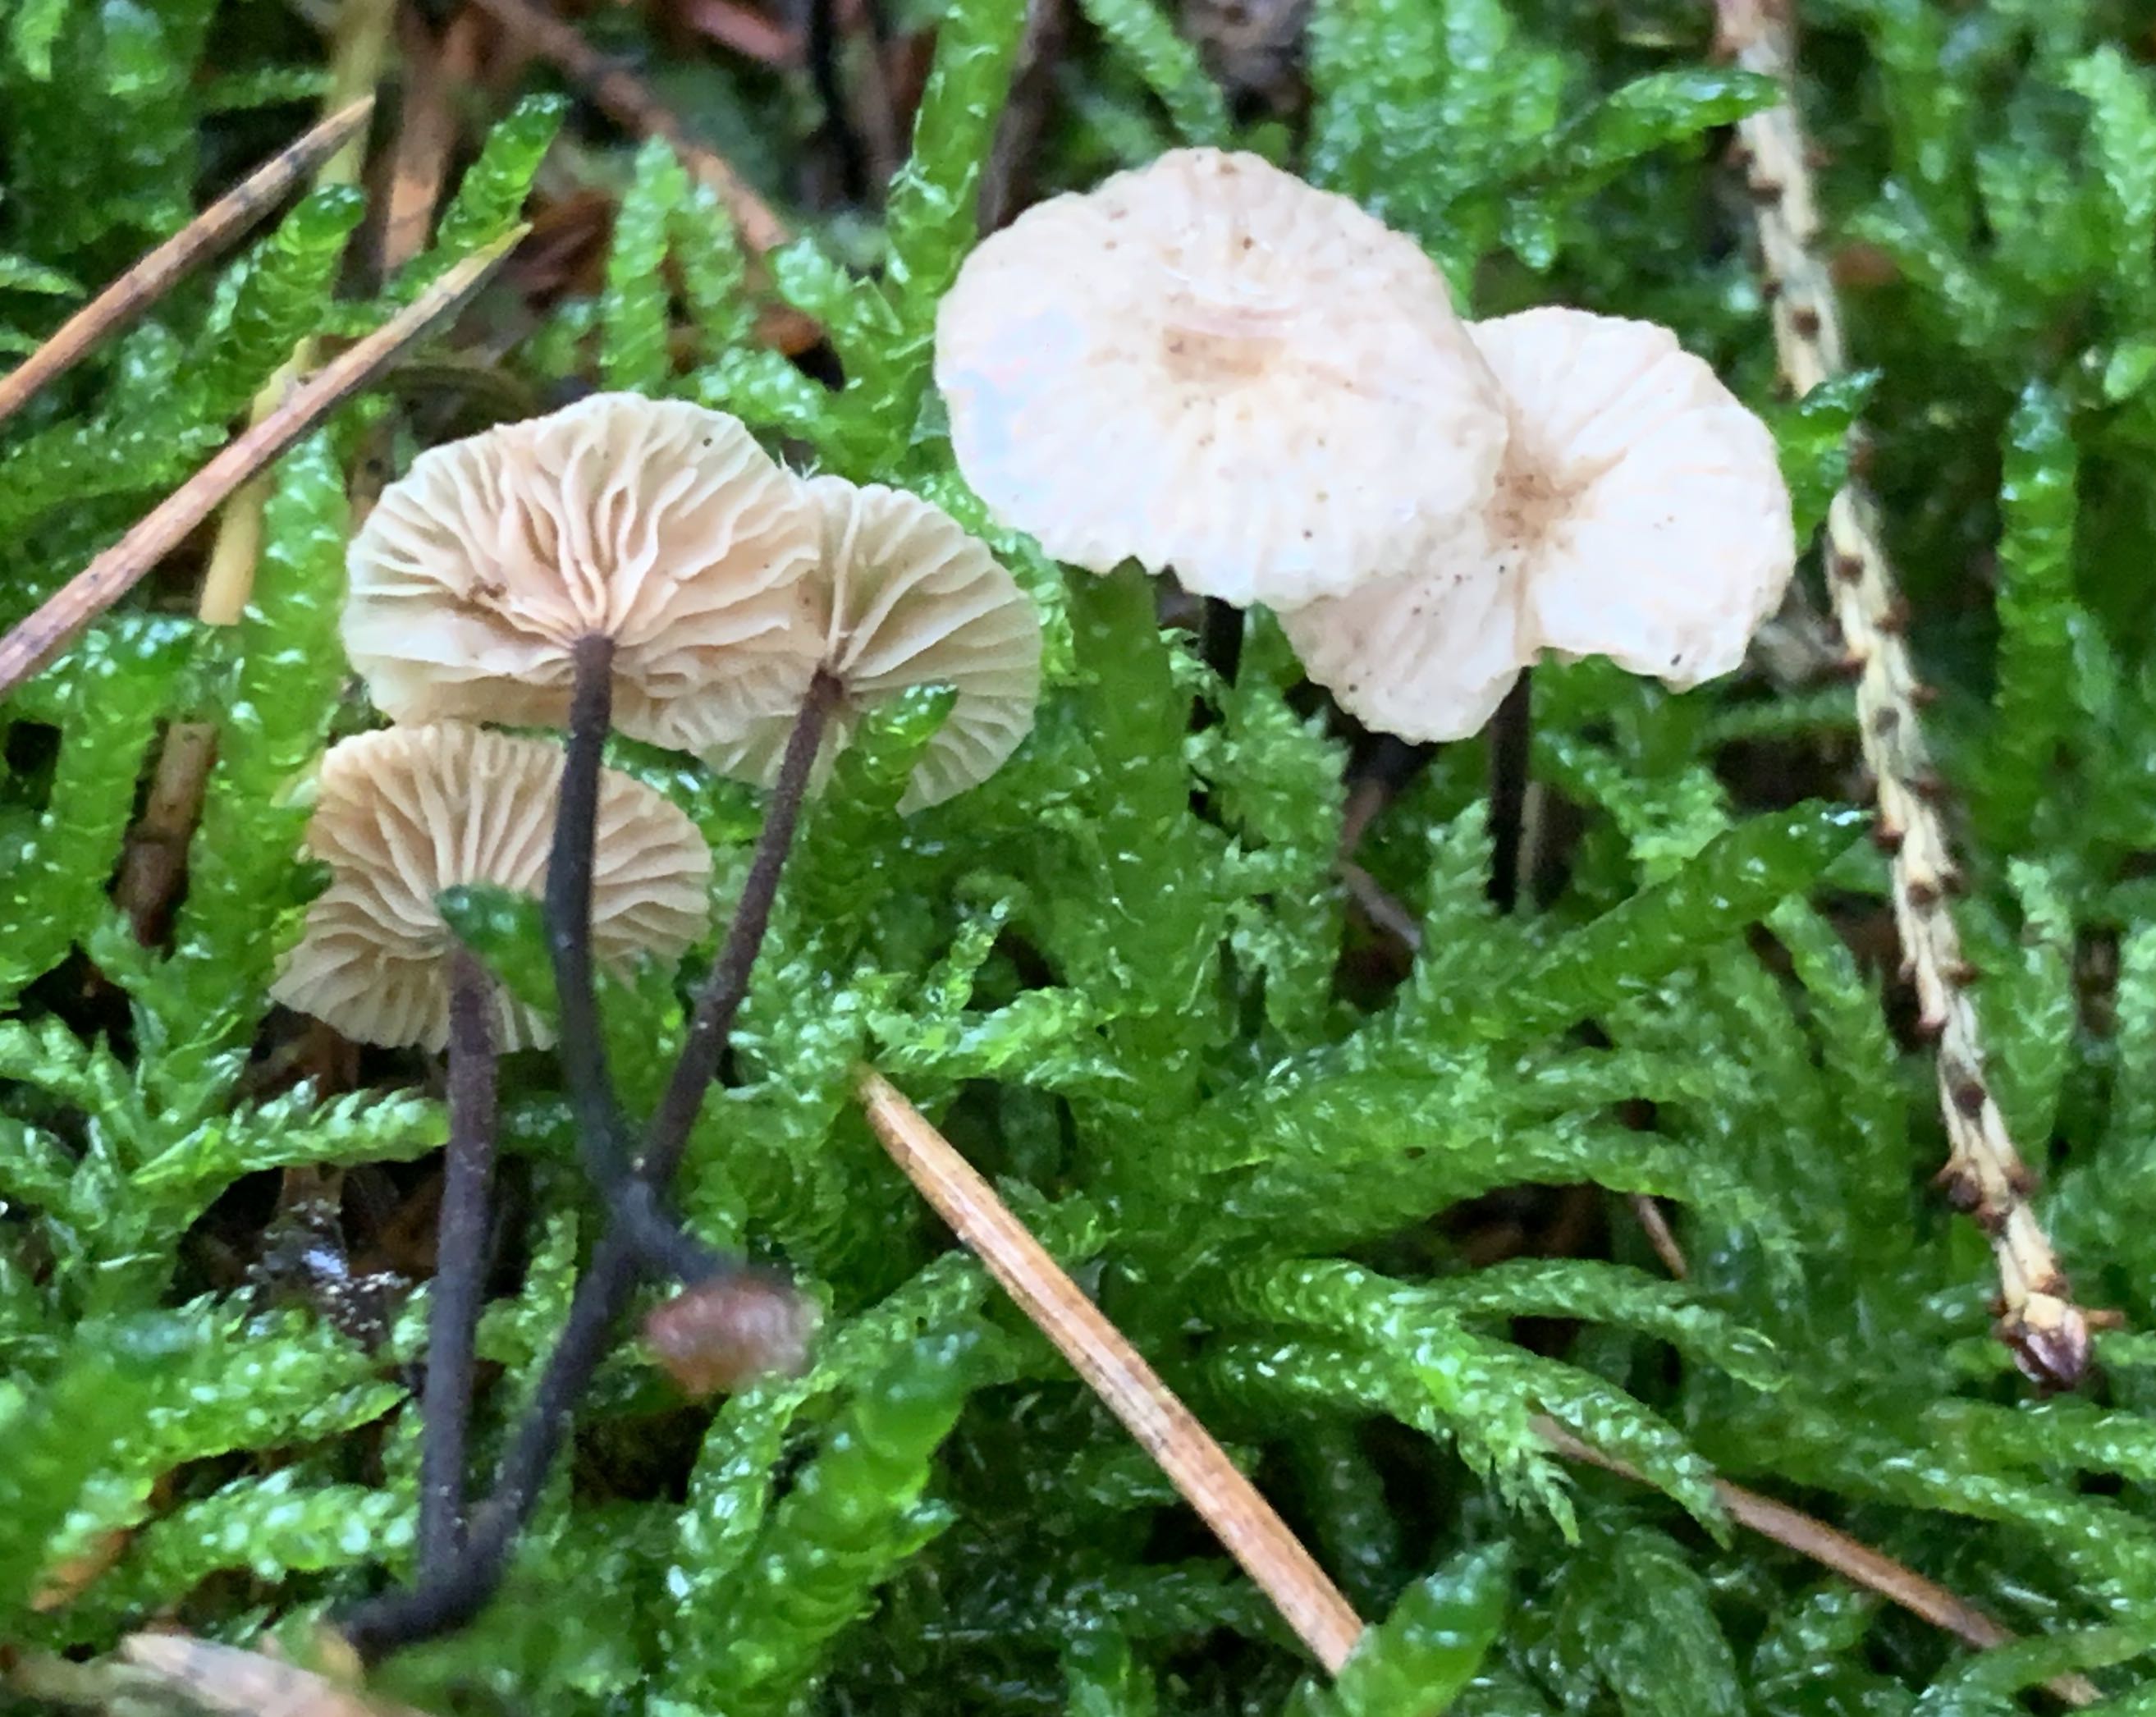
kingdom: Fungi
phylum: Basidiomycota
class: Agaricomycetes
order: Agaricales
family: Omphalotaceae
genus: Paragymnopus
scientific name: Paragymnopus perforans
